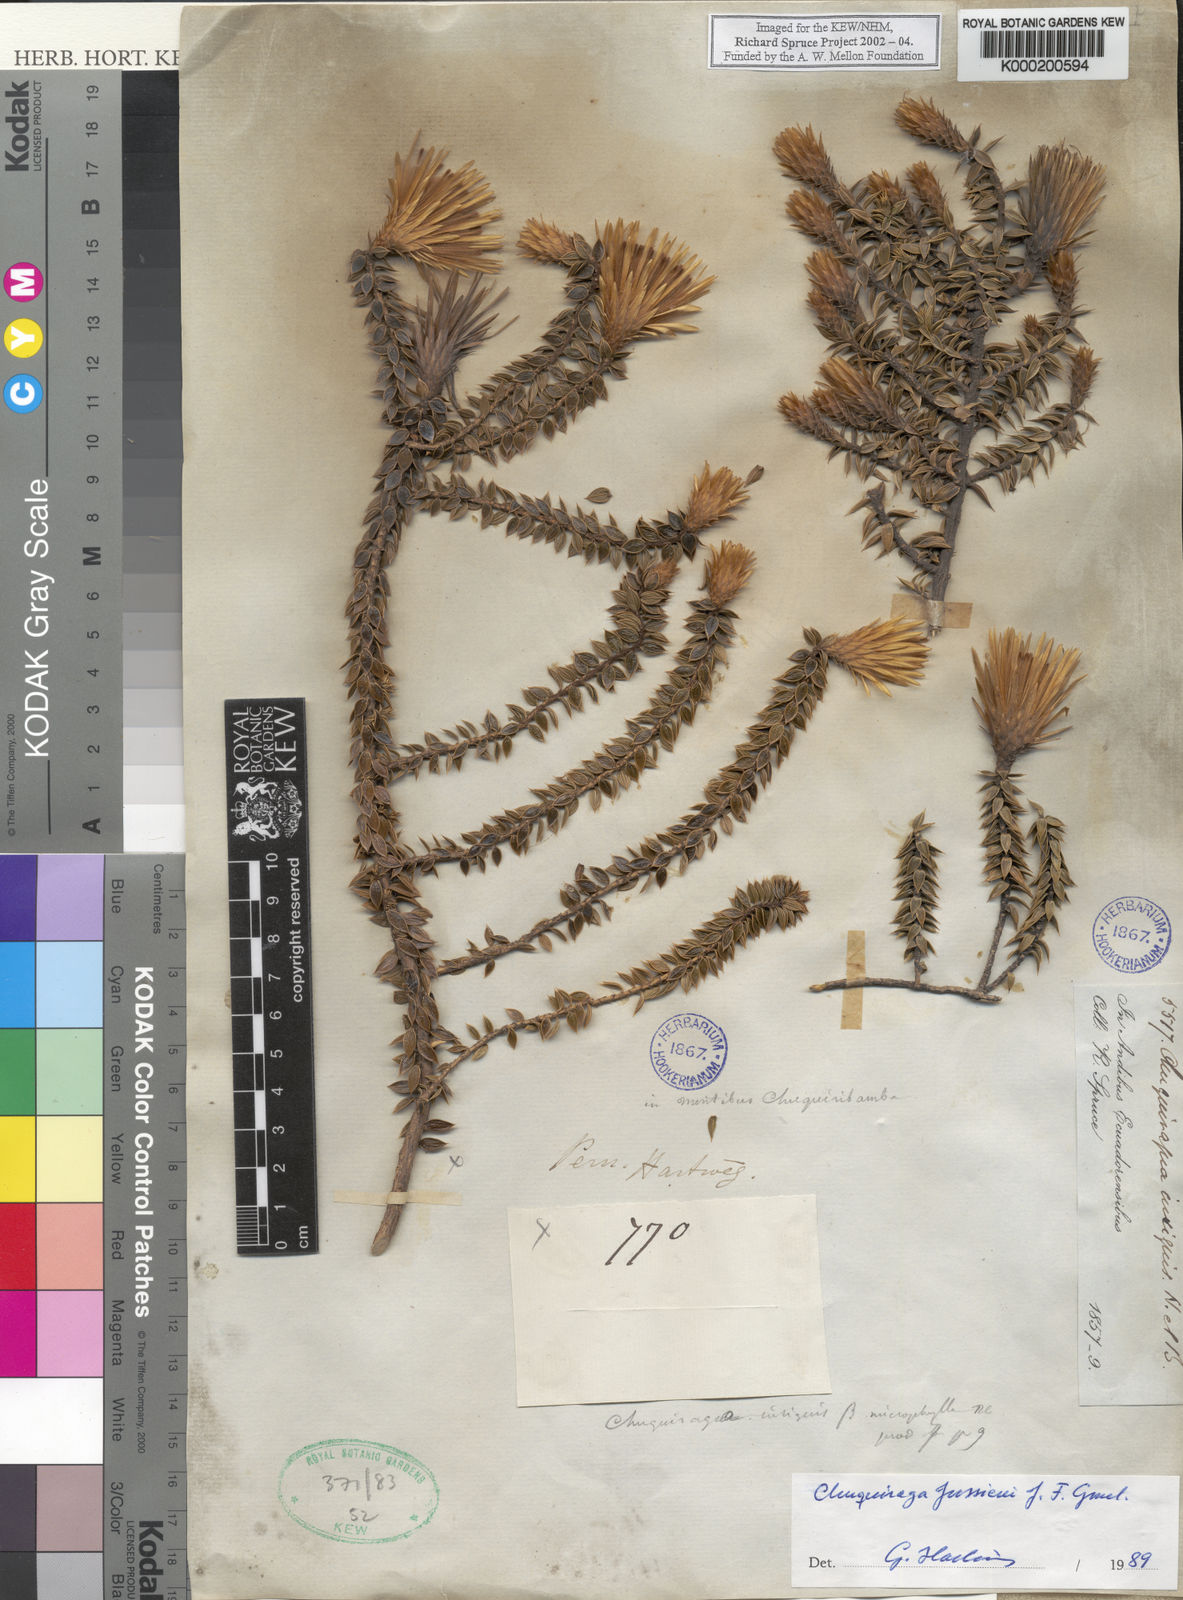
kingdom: Plantae
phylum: Tracheophyta
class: Magnoliopsida
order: Asterales
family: Asteraceae
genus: Chuquiraga
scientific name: Chuquiraga jussieui
